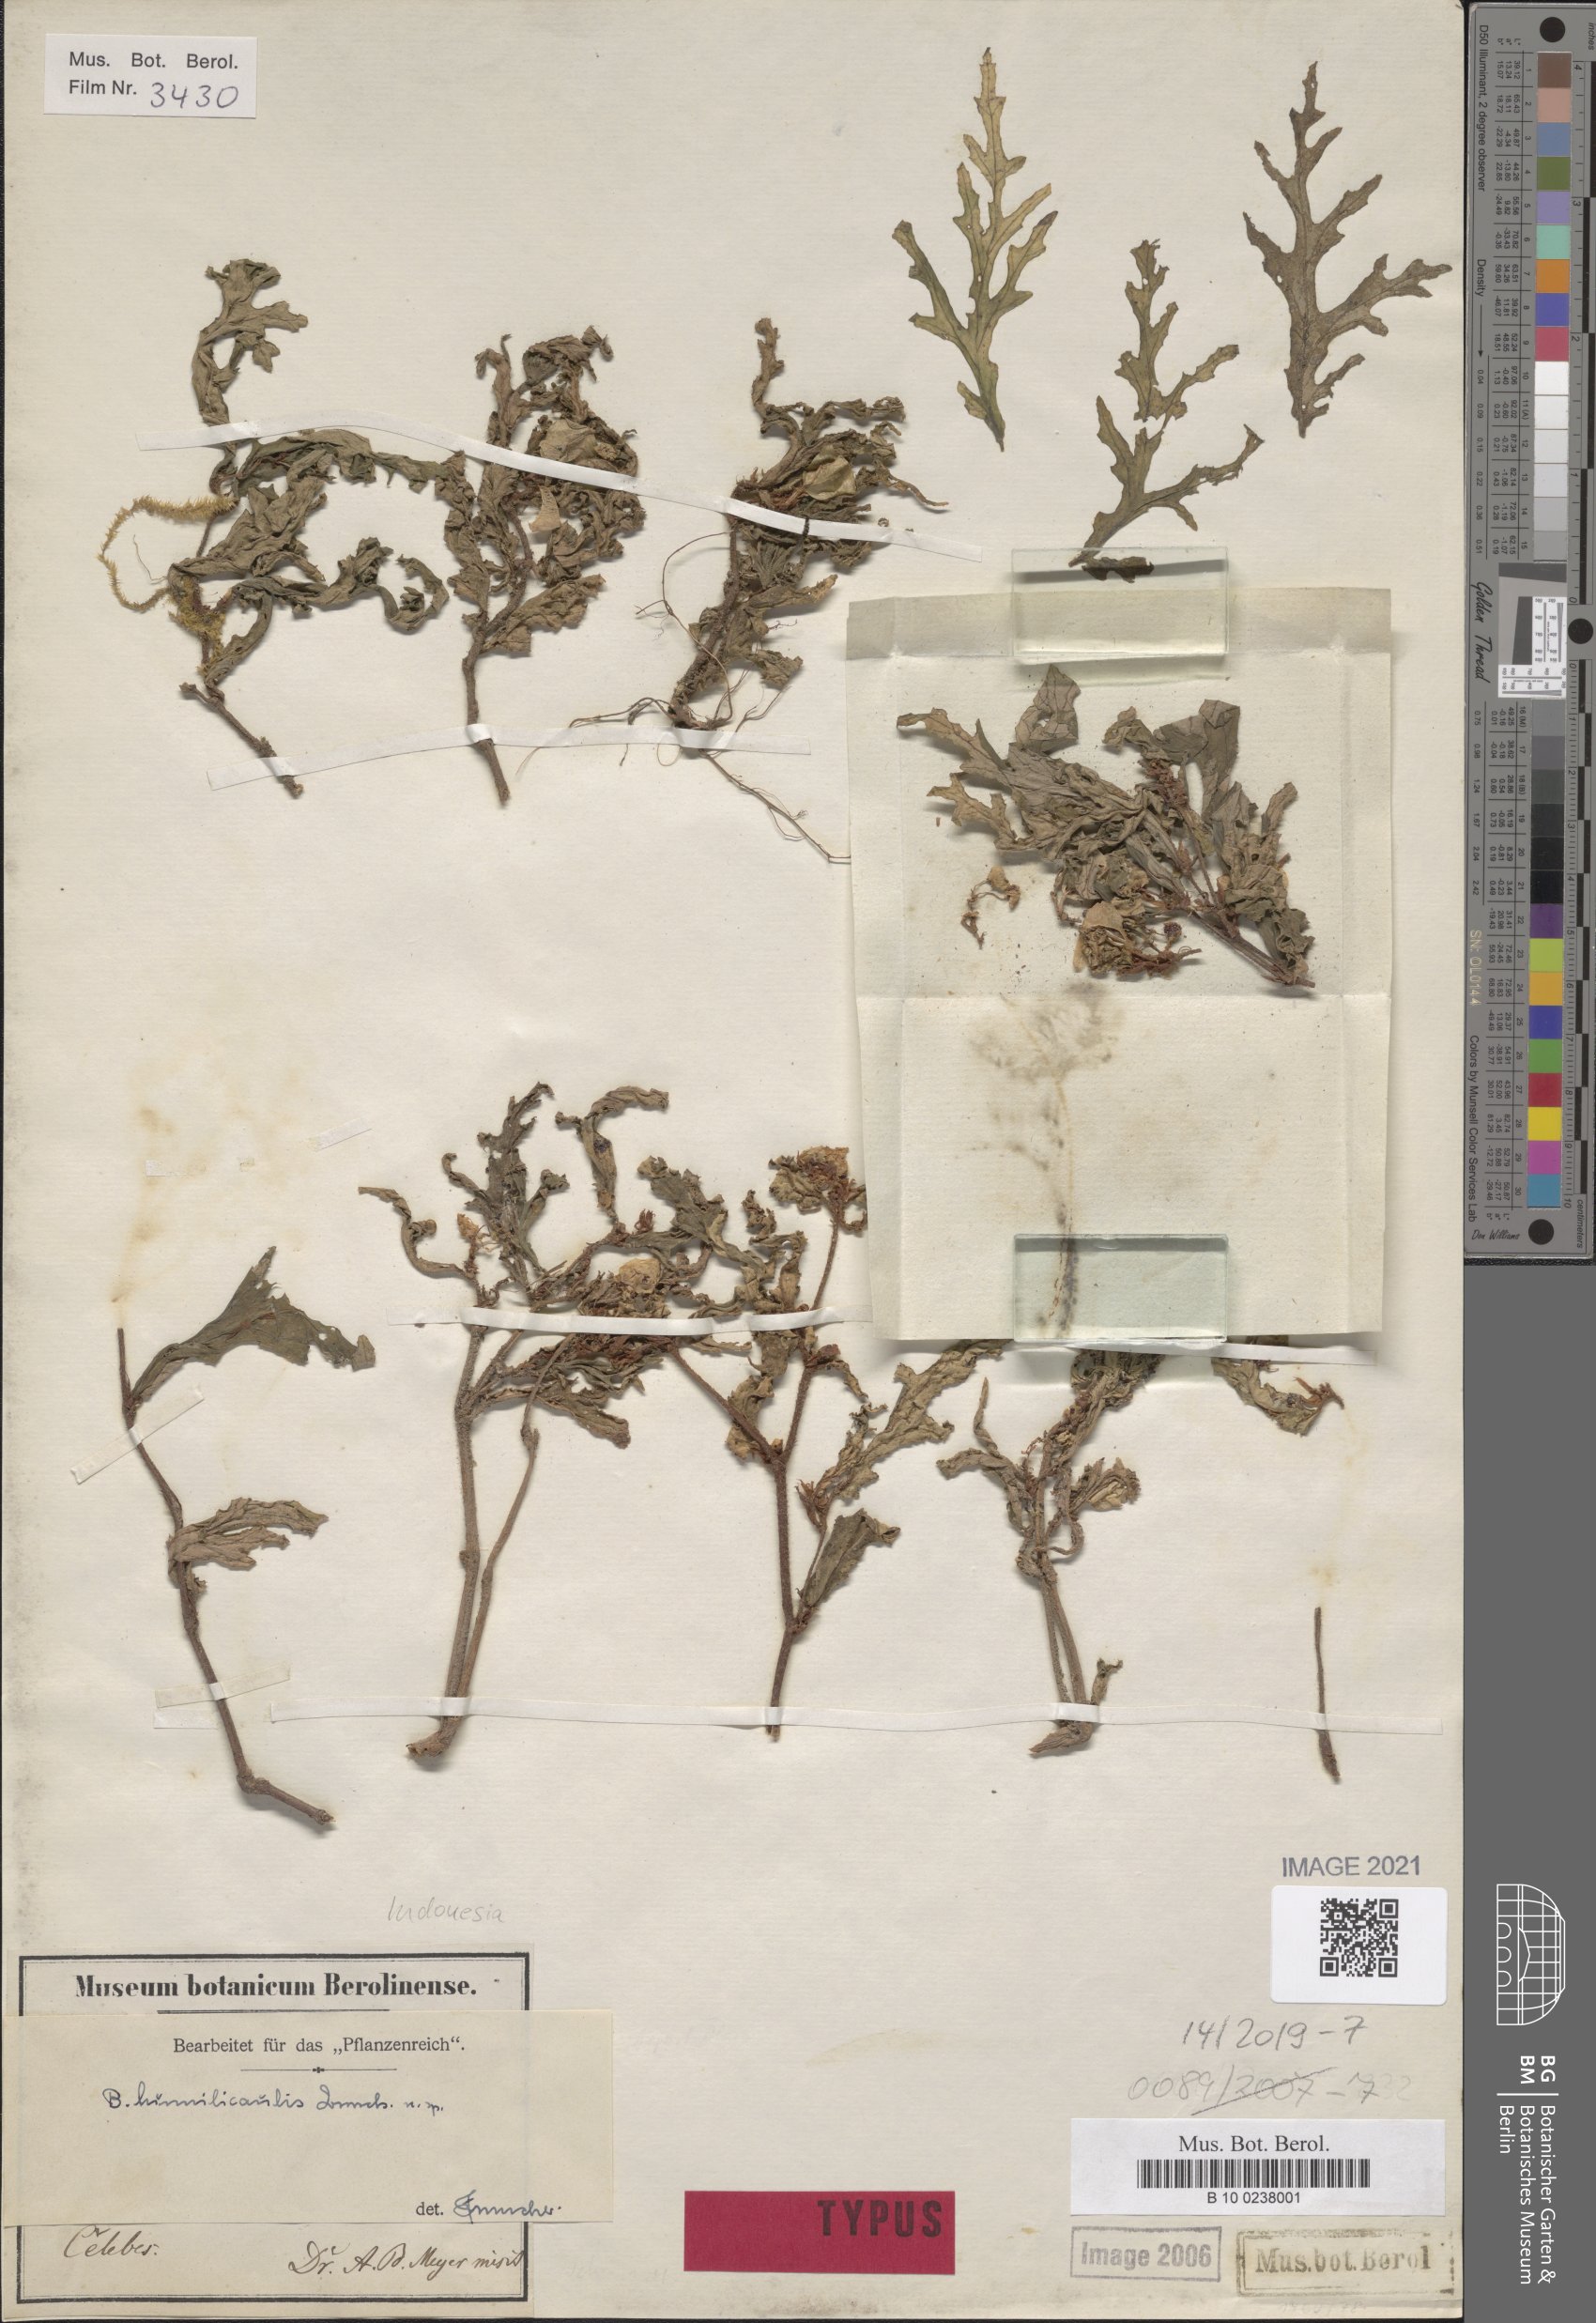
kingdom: Plantae
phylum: Tracheophyta
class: Magnoliopsida
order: Cucurbitales
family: Begoniaceae
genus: Begonia
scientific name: Begonia humilicaulis
